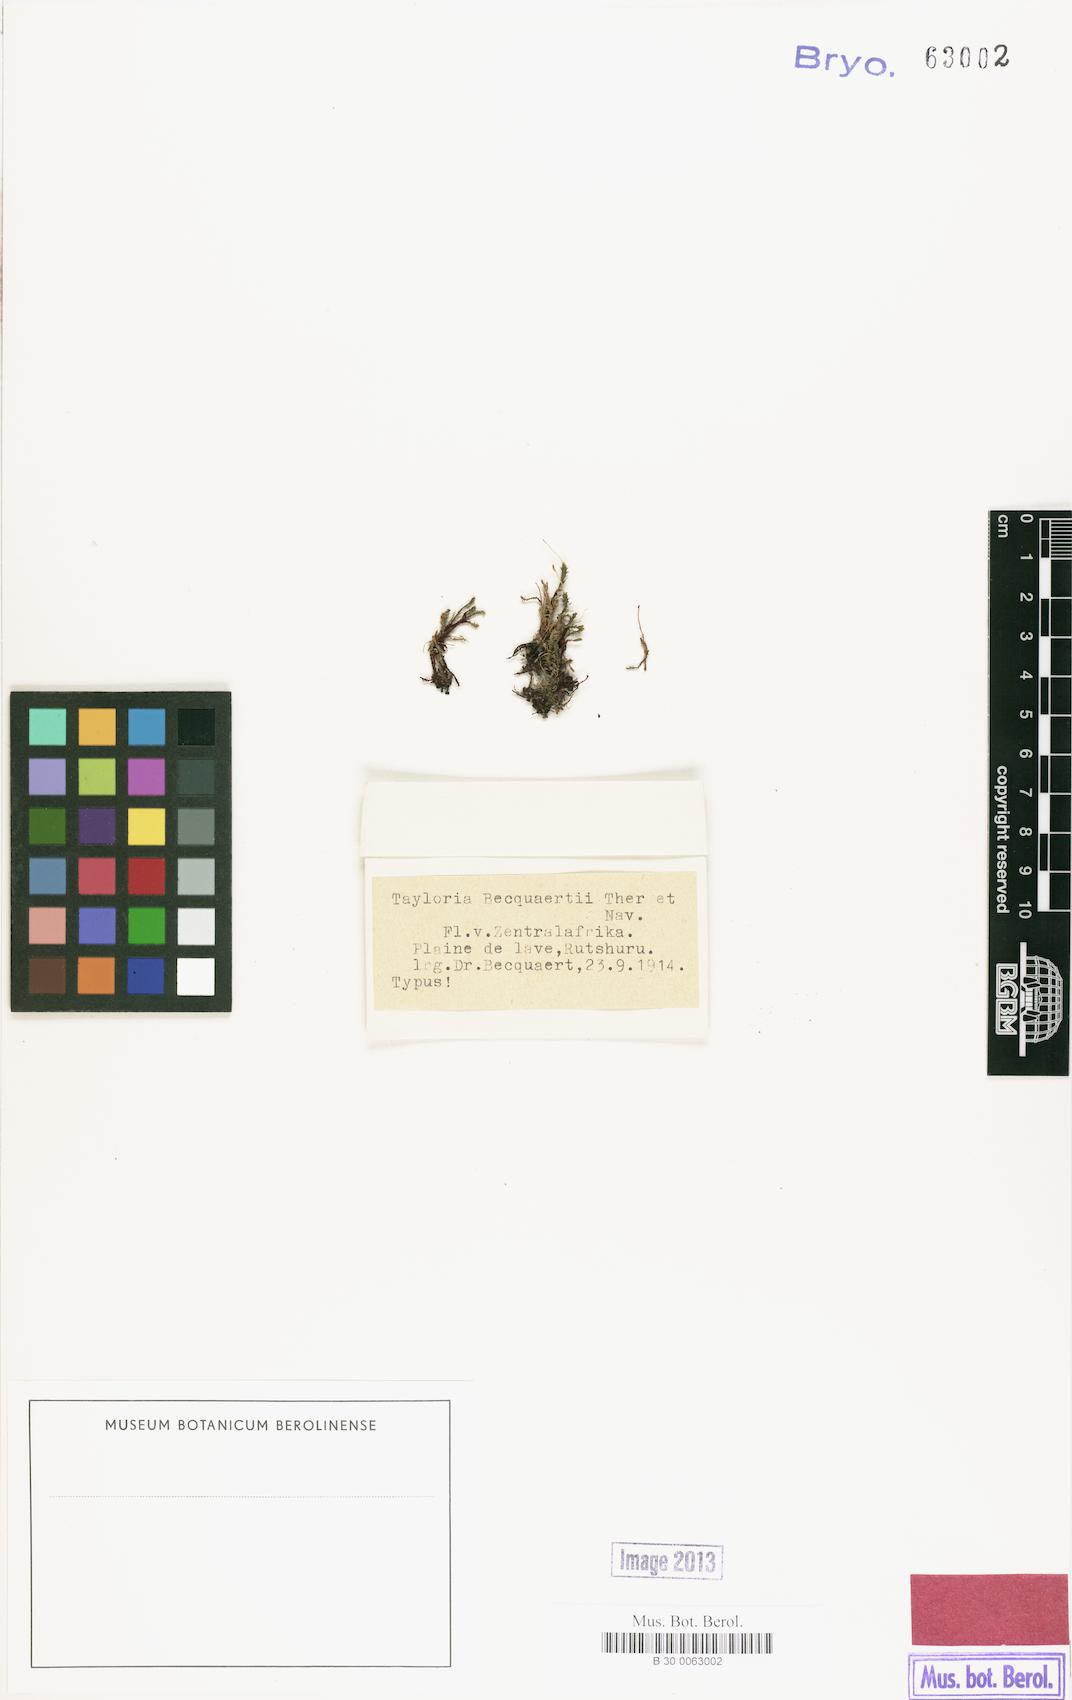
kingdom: Plantae
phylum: Bryophyta
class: Bryopsida
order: Splachnales
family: Splachnaceae
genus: Tayloria
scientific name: Tayloria
